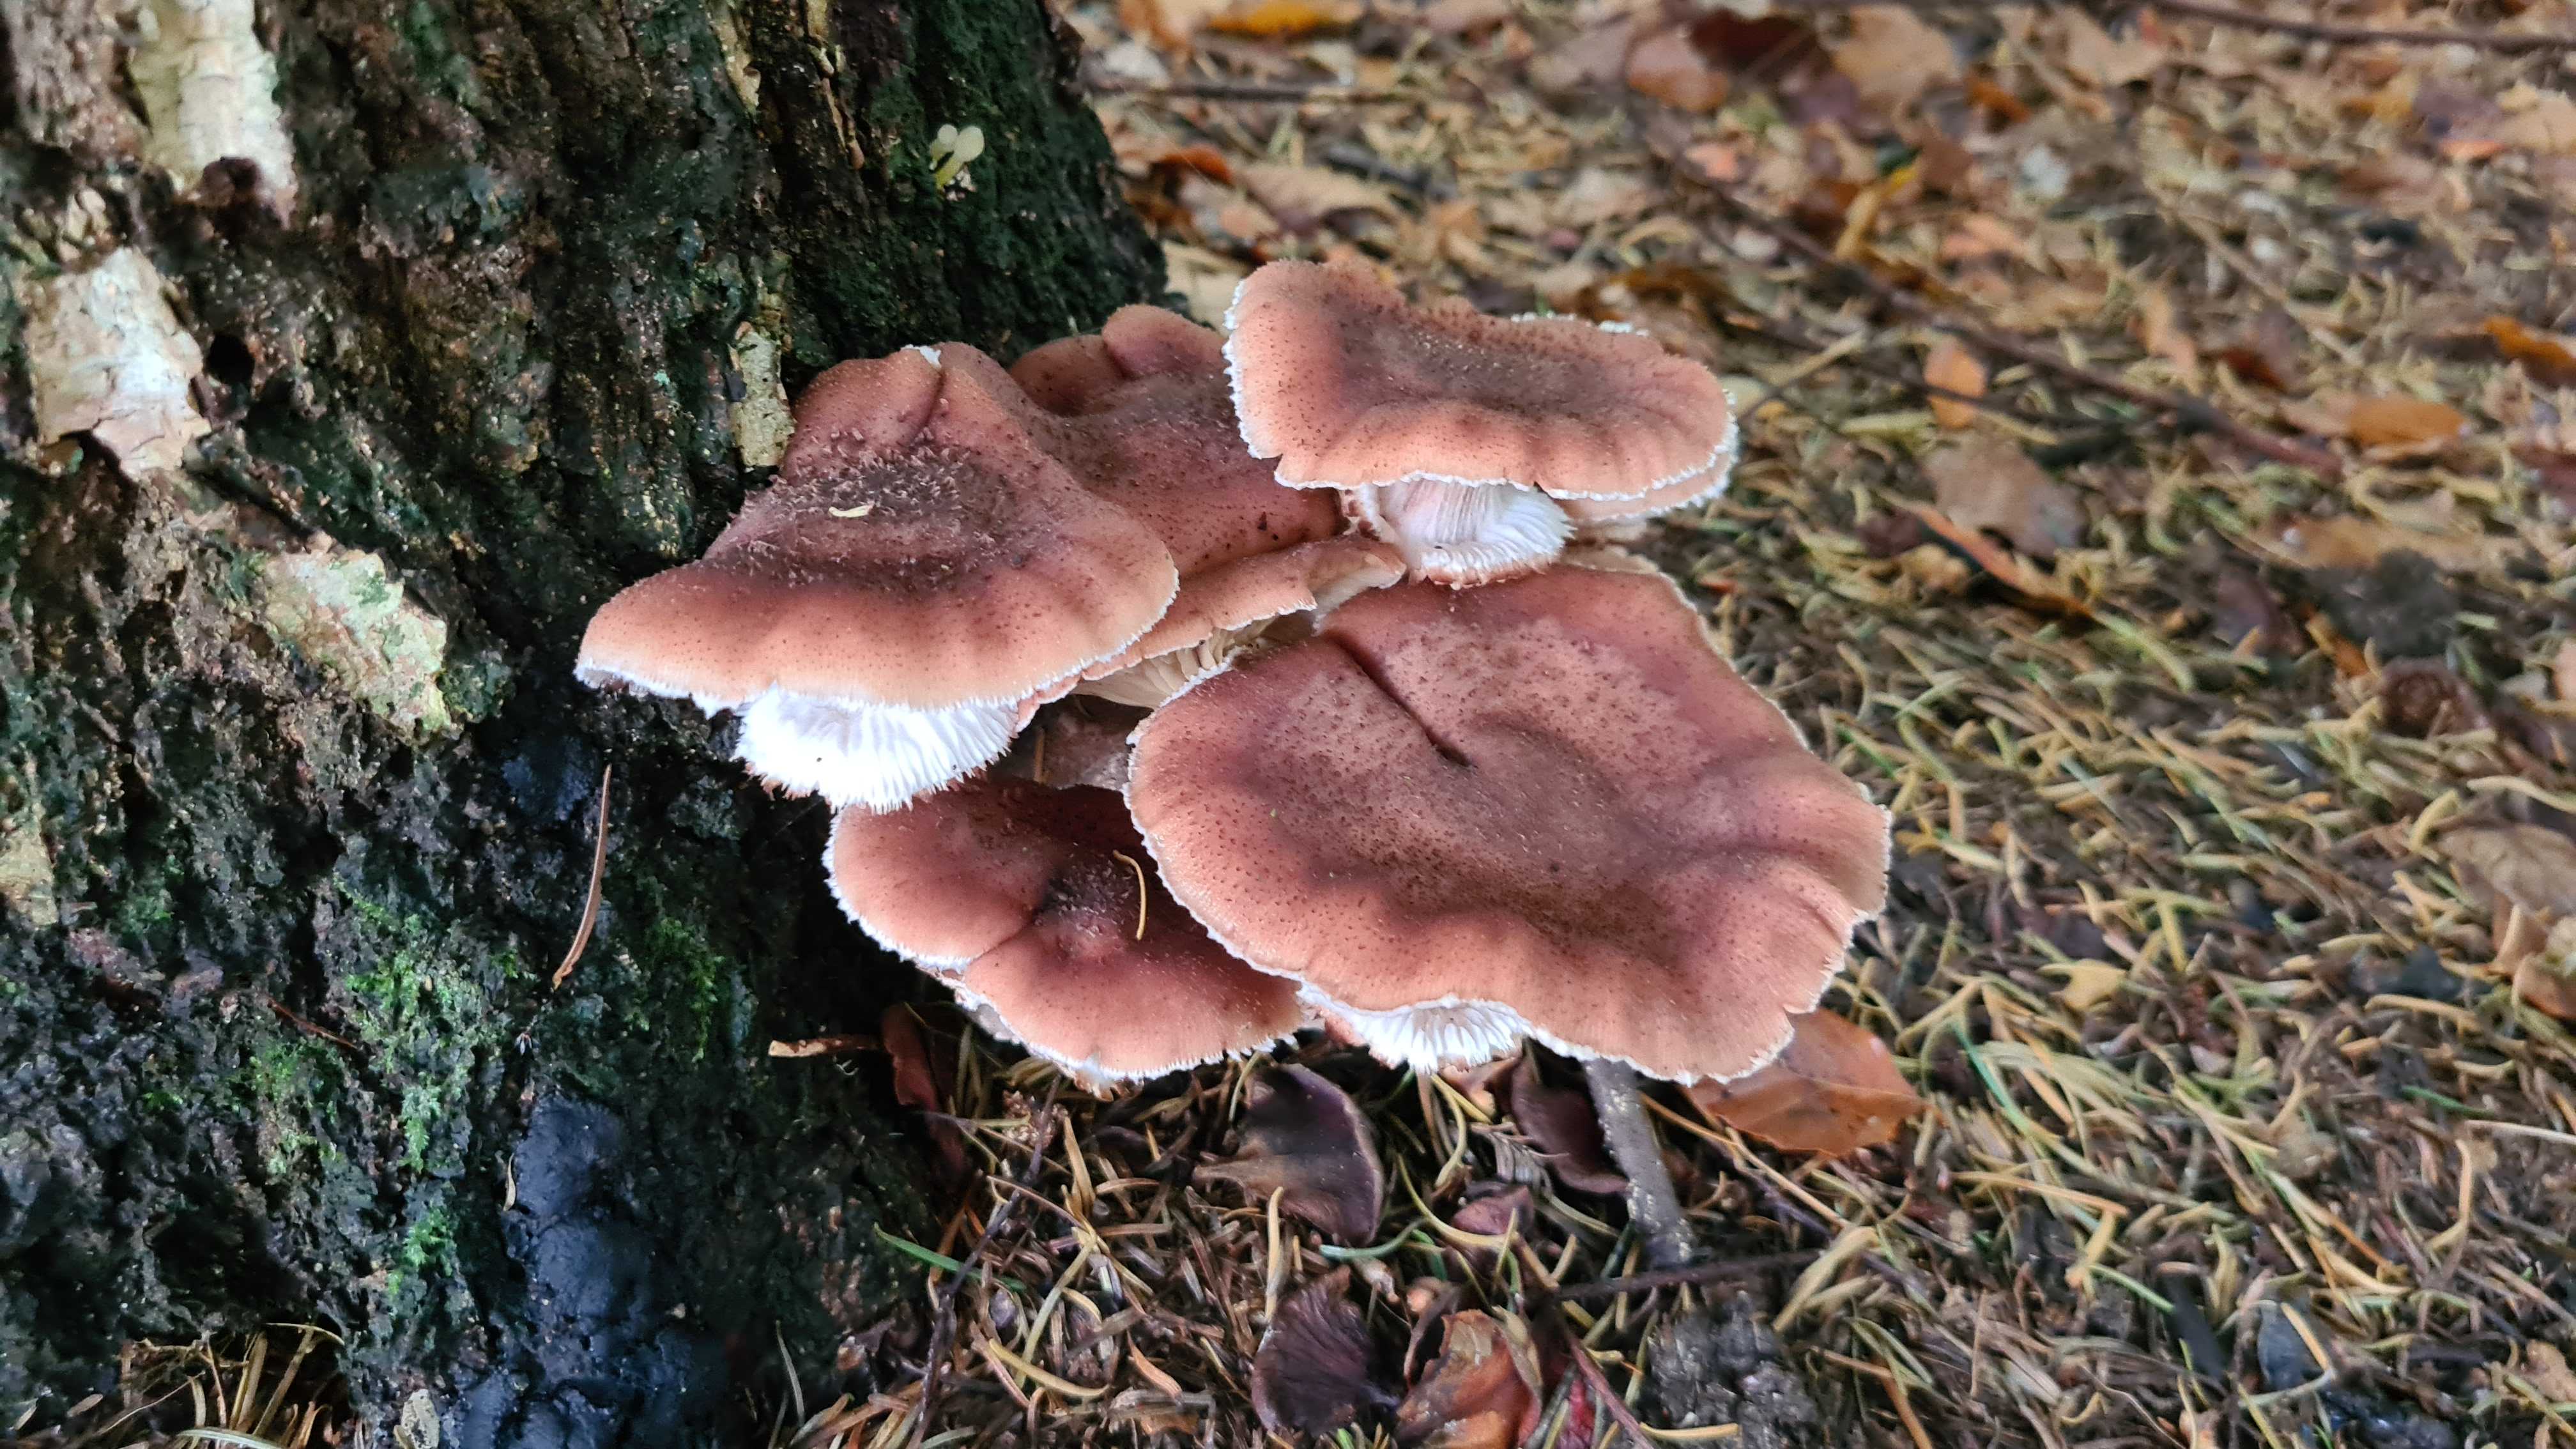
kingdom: Fungi
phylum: Basidiomycota
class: Agaricomycetes
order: Agaricales
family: Physalacriaceae
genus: Armillaria
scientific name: Armillaria ostoyae
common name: mørk honningsvamp
